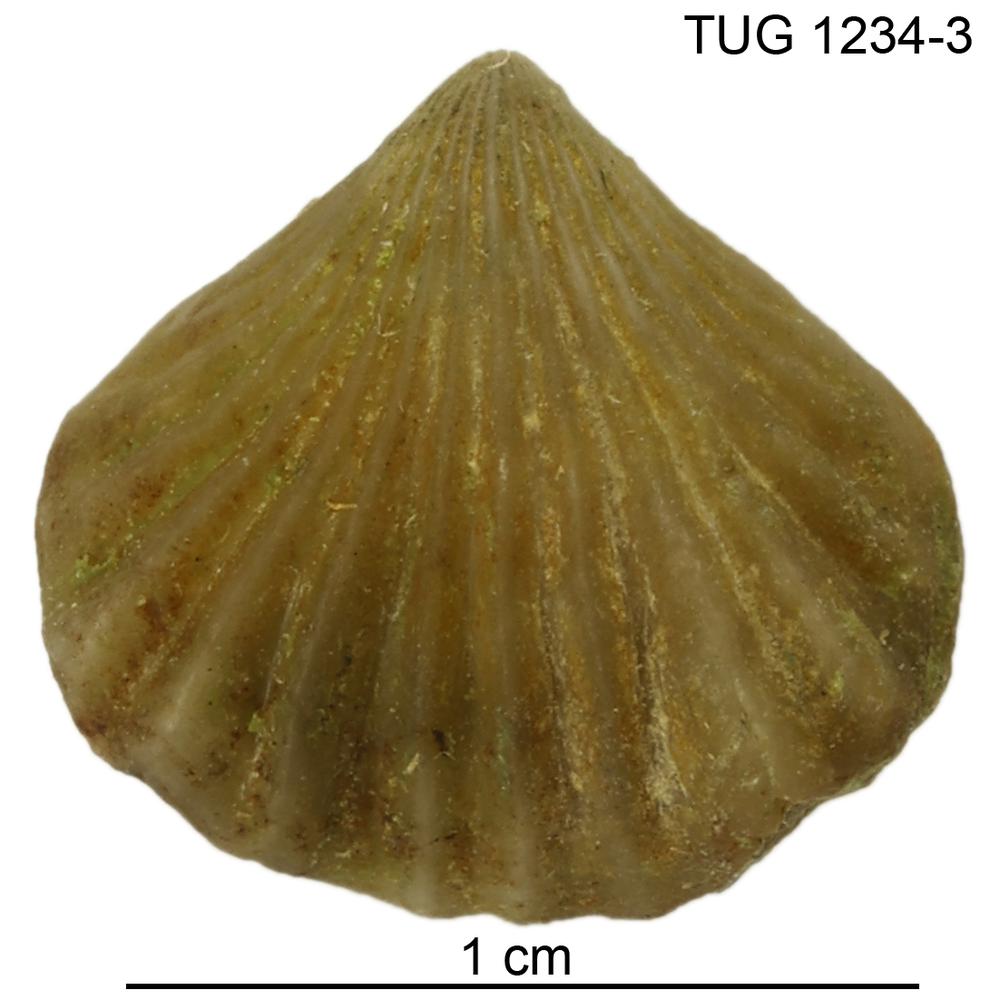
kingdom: Animalia
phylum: Brachiopoda
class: Rhynchonellata
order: Rhynchonellida
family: Trigonirhynchiidae
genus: Rostricellula
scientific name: Rostricellula nobilis
